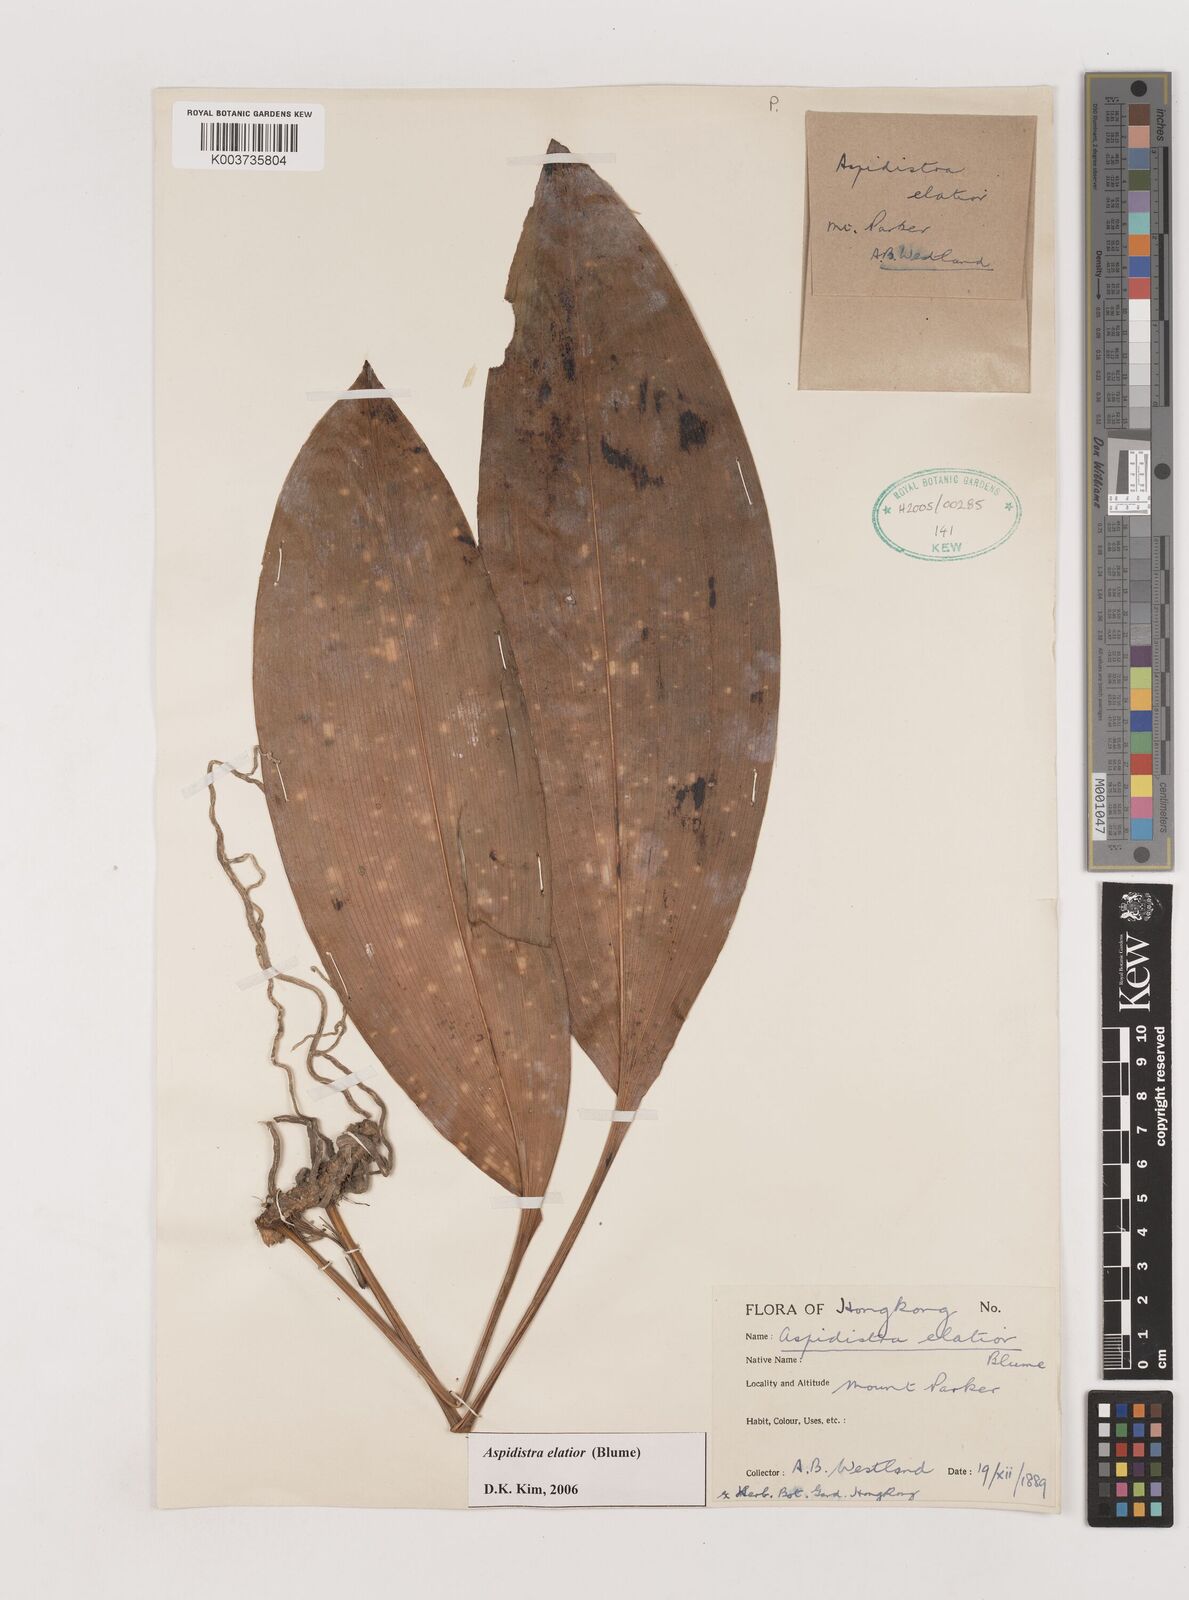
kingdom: Plantae
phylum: Tracheophyta
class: Liliopsida
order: Asparagales
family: Asparagaceae
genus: Aspidistra
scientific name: Aspidistra elatior
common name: Cast-iron-plant
